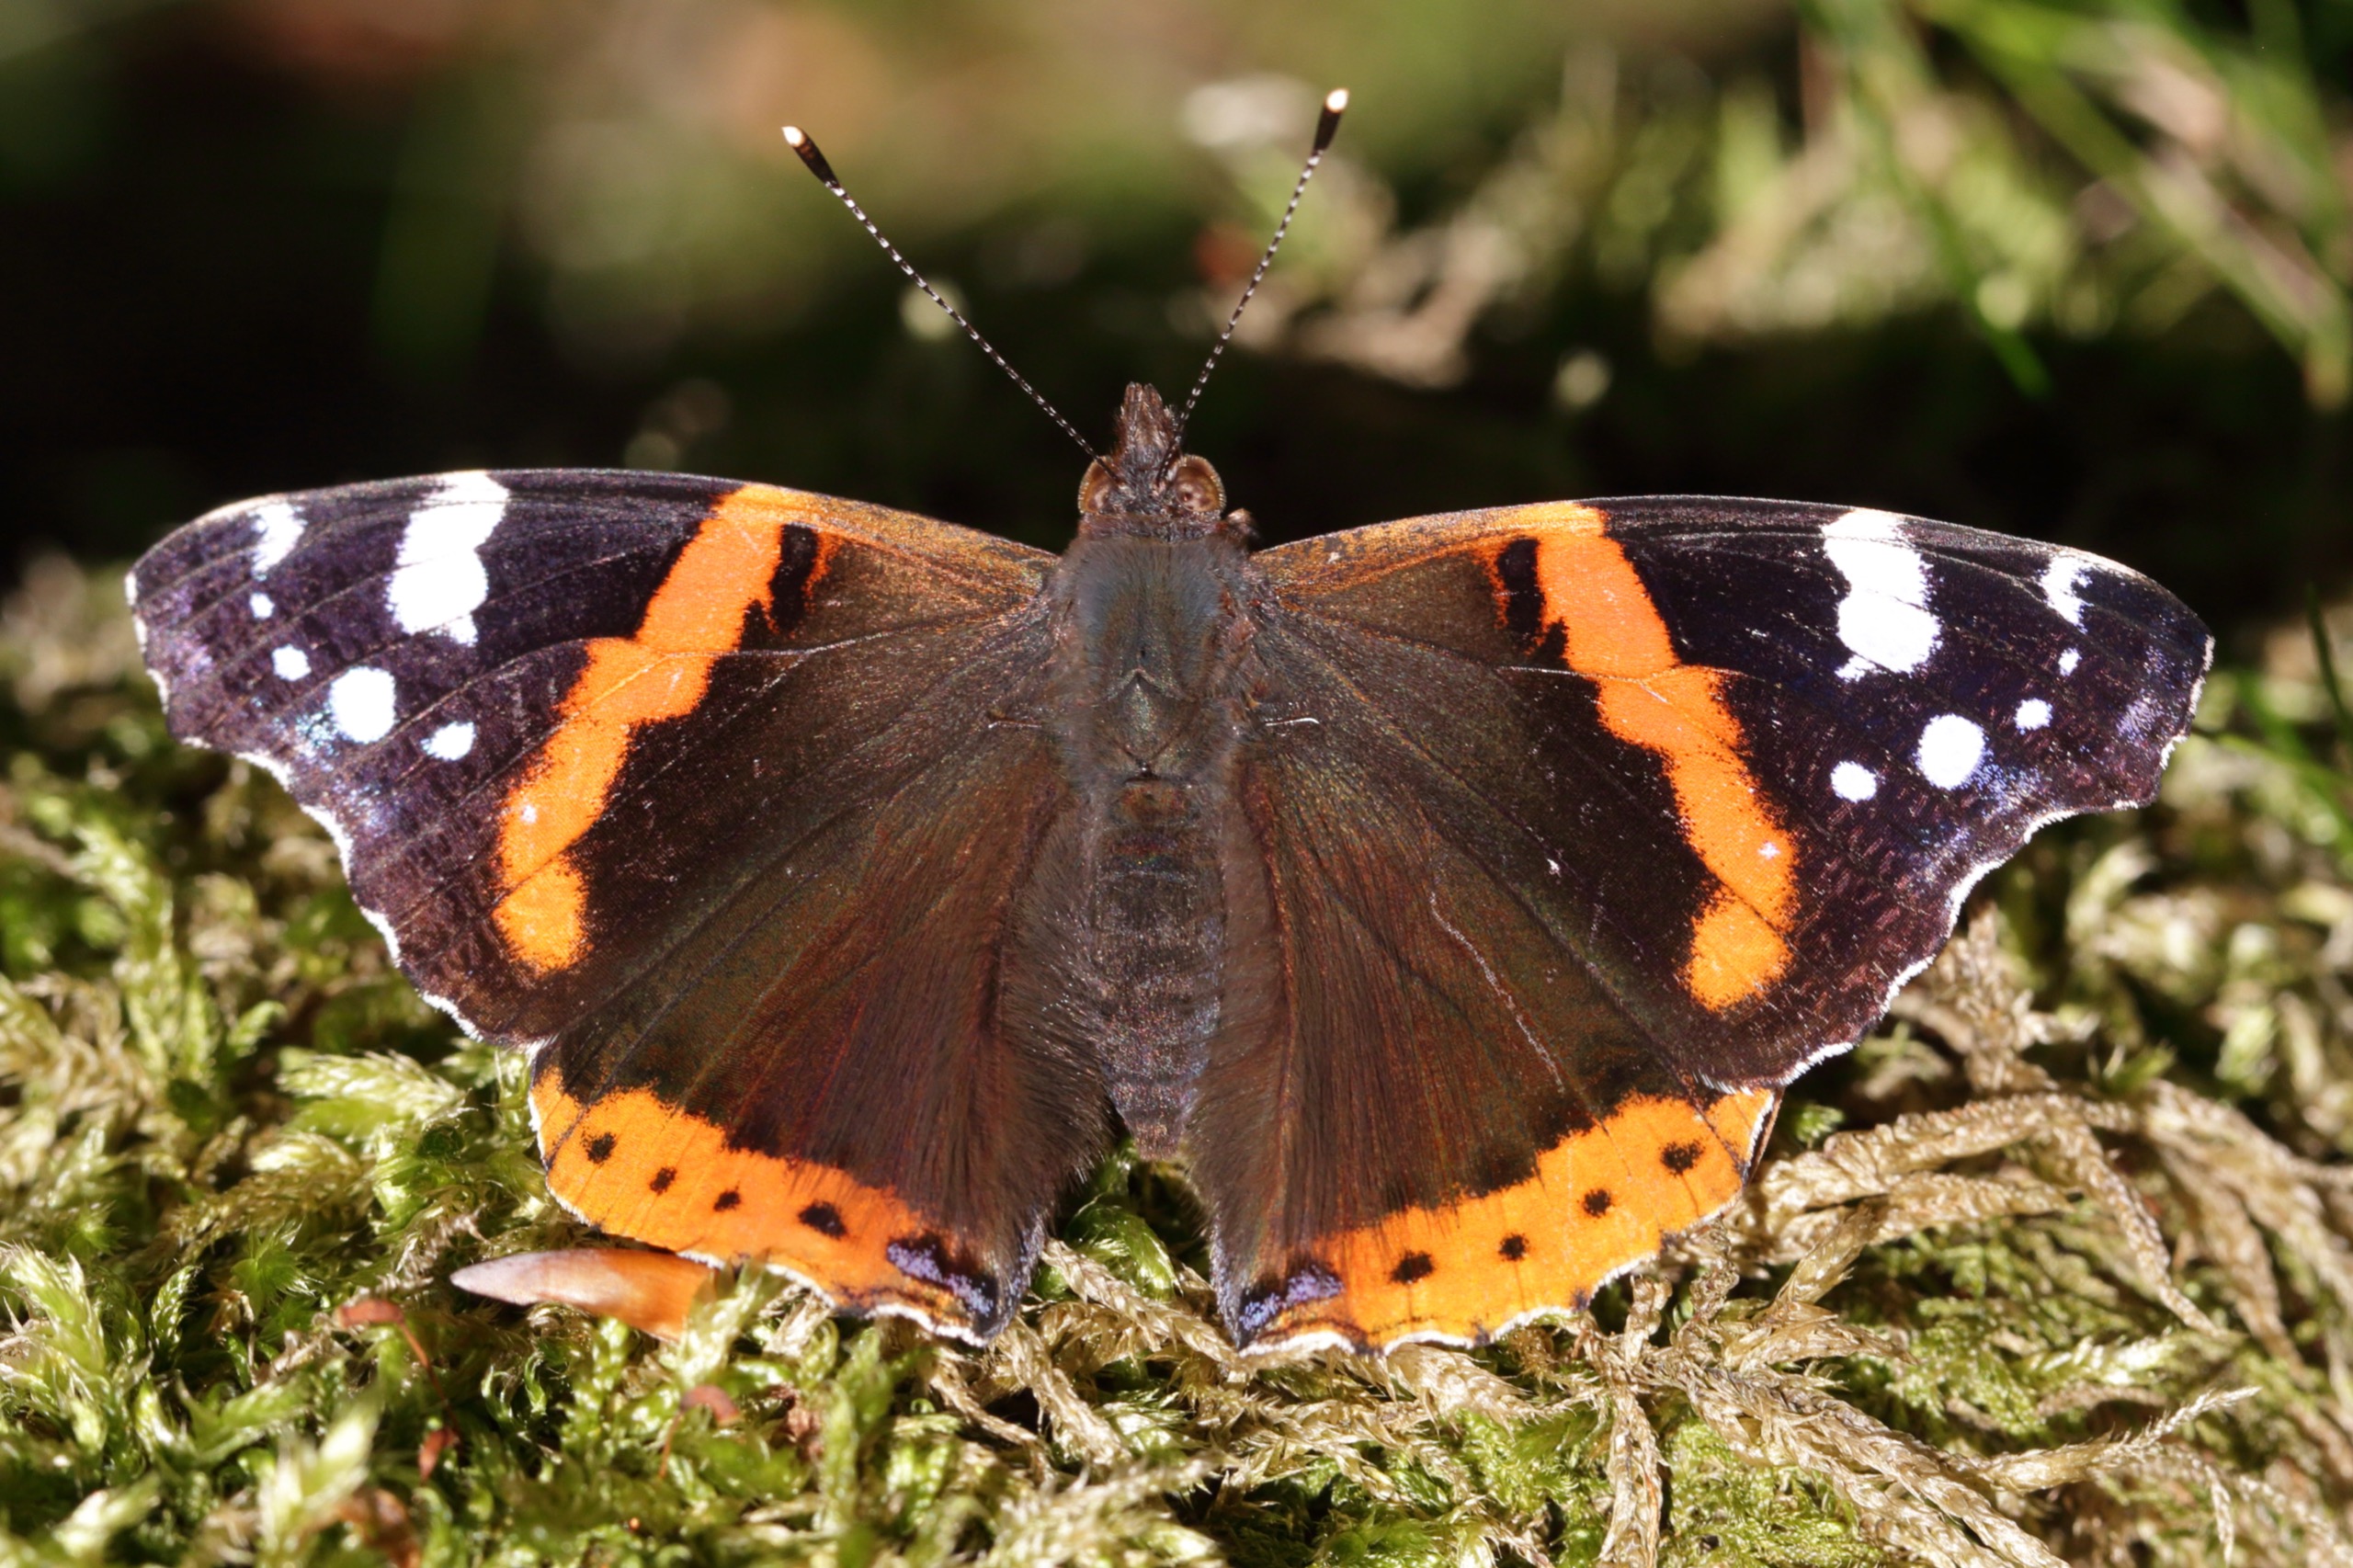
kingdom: Animalia
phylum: Arthropoda
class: Insecta
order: Lepidoptera
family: Nymphalidae
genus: Vanessa
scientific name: Vanessa atalanta
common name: Admiral
